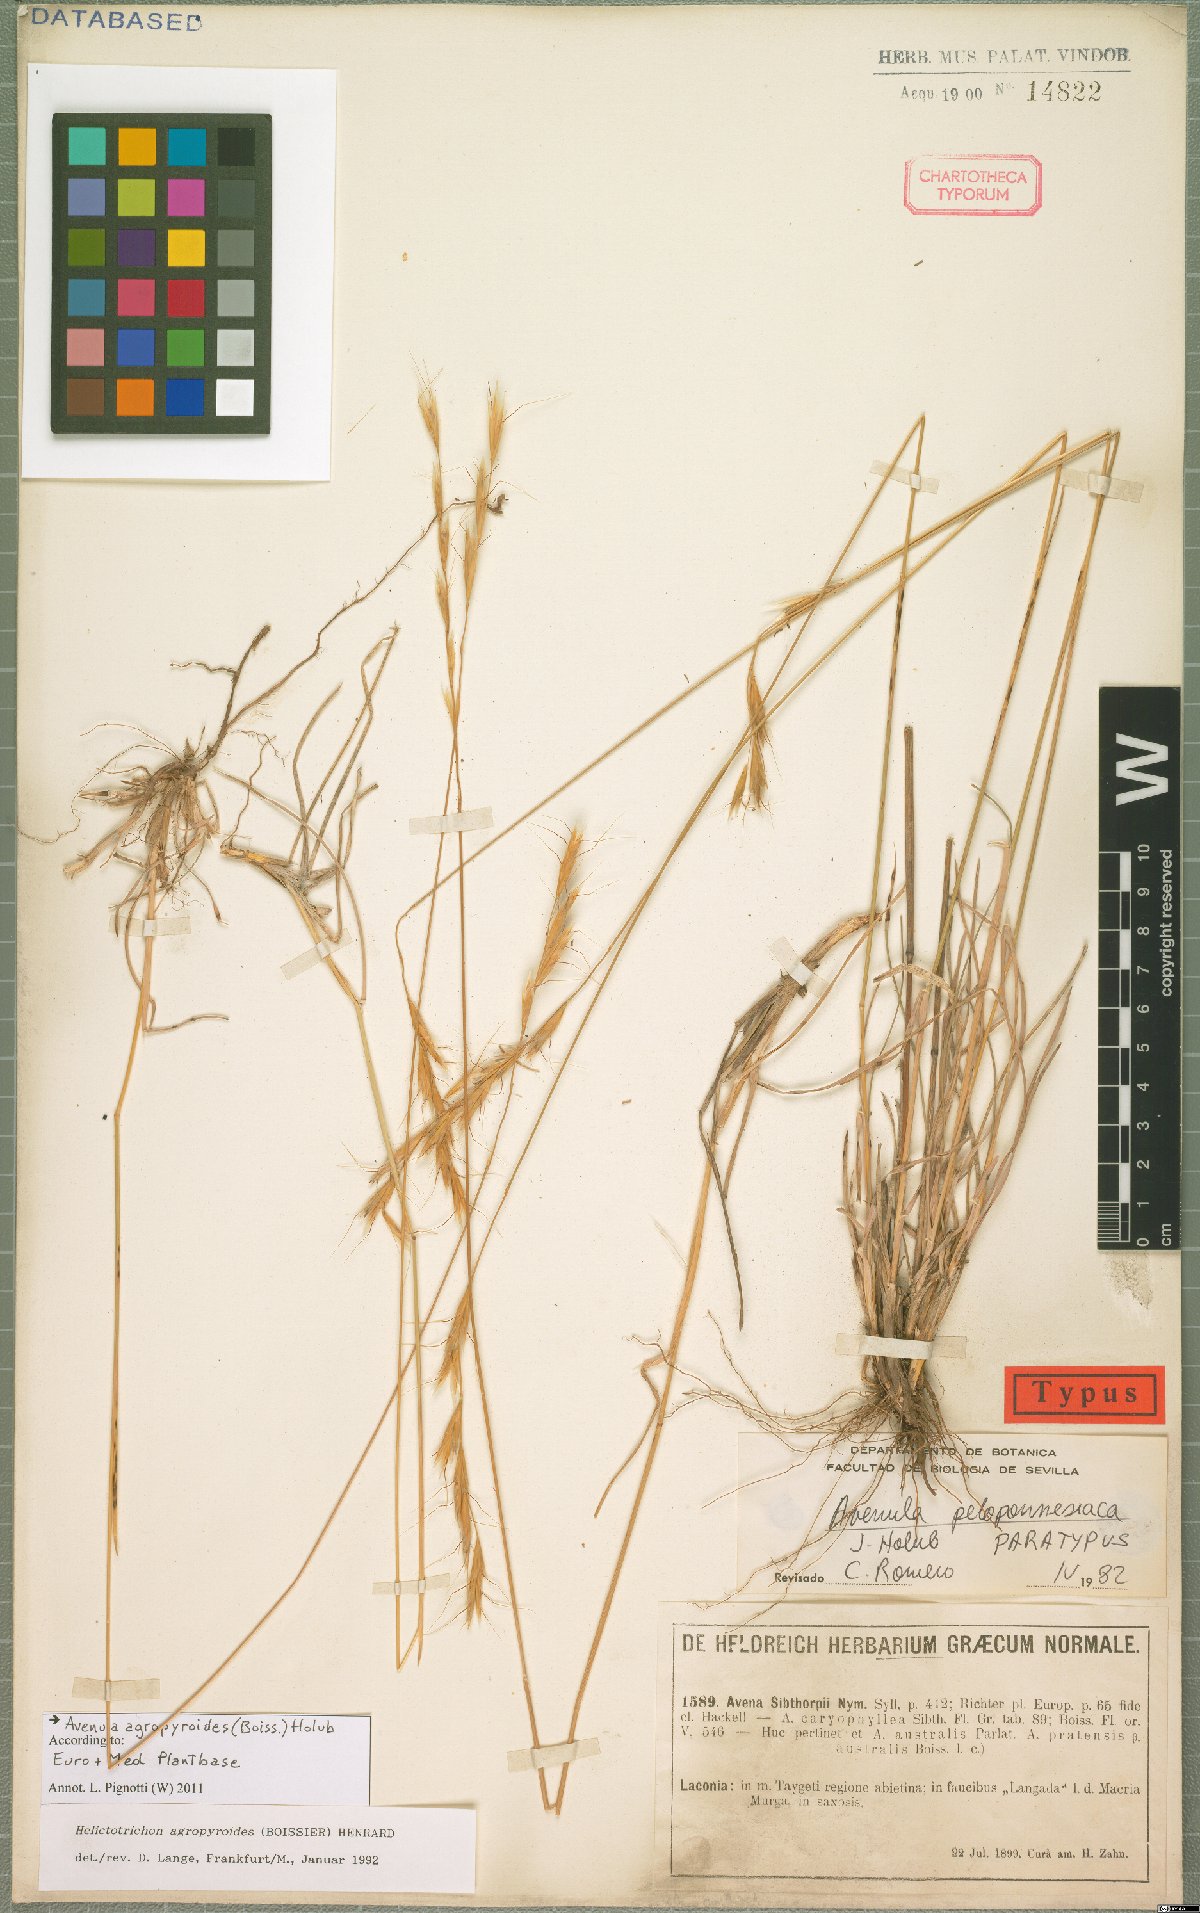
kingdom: Plantae
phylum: Tracheophyta
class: Liliopsida
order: Poales
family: Poaceae
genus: Helictochloa
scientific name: Helictochloa agropyroides
